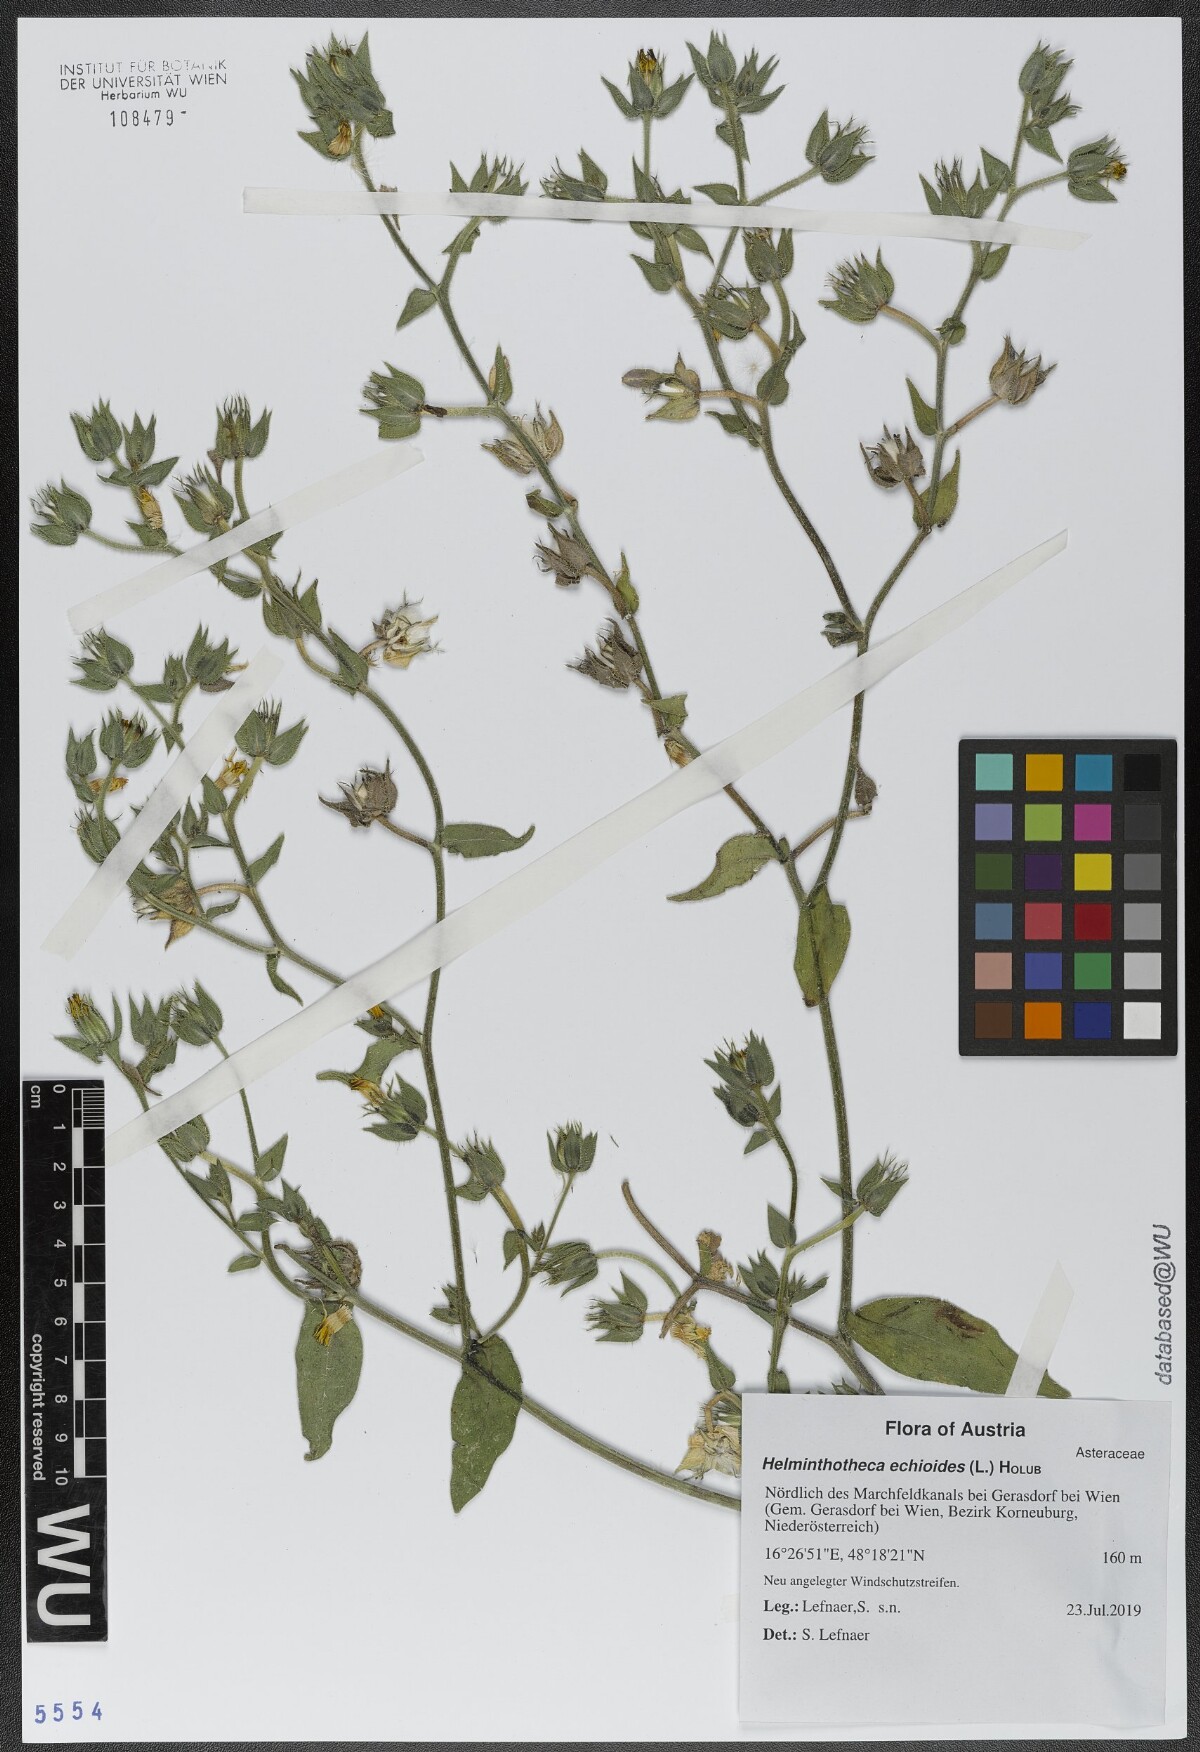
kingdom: Plantae
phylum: Tracheophyta
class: Magnoliopsida
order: Asterales
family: Asteraceae
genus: Helminthotheca
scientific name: Helminthotheca echioides
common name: Ox-tongue
